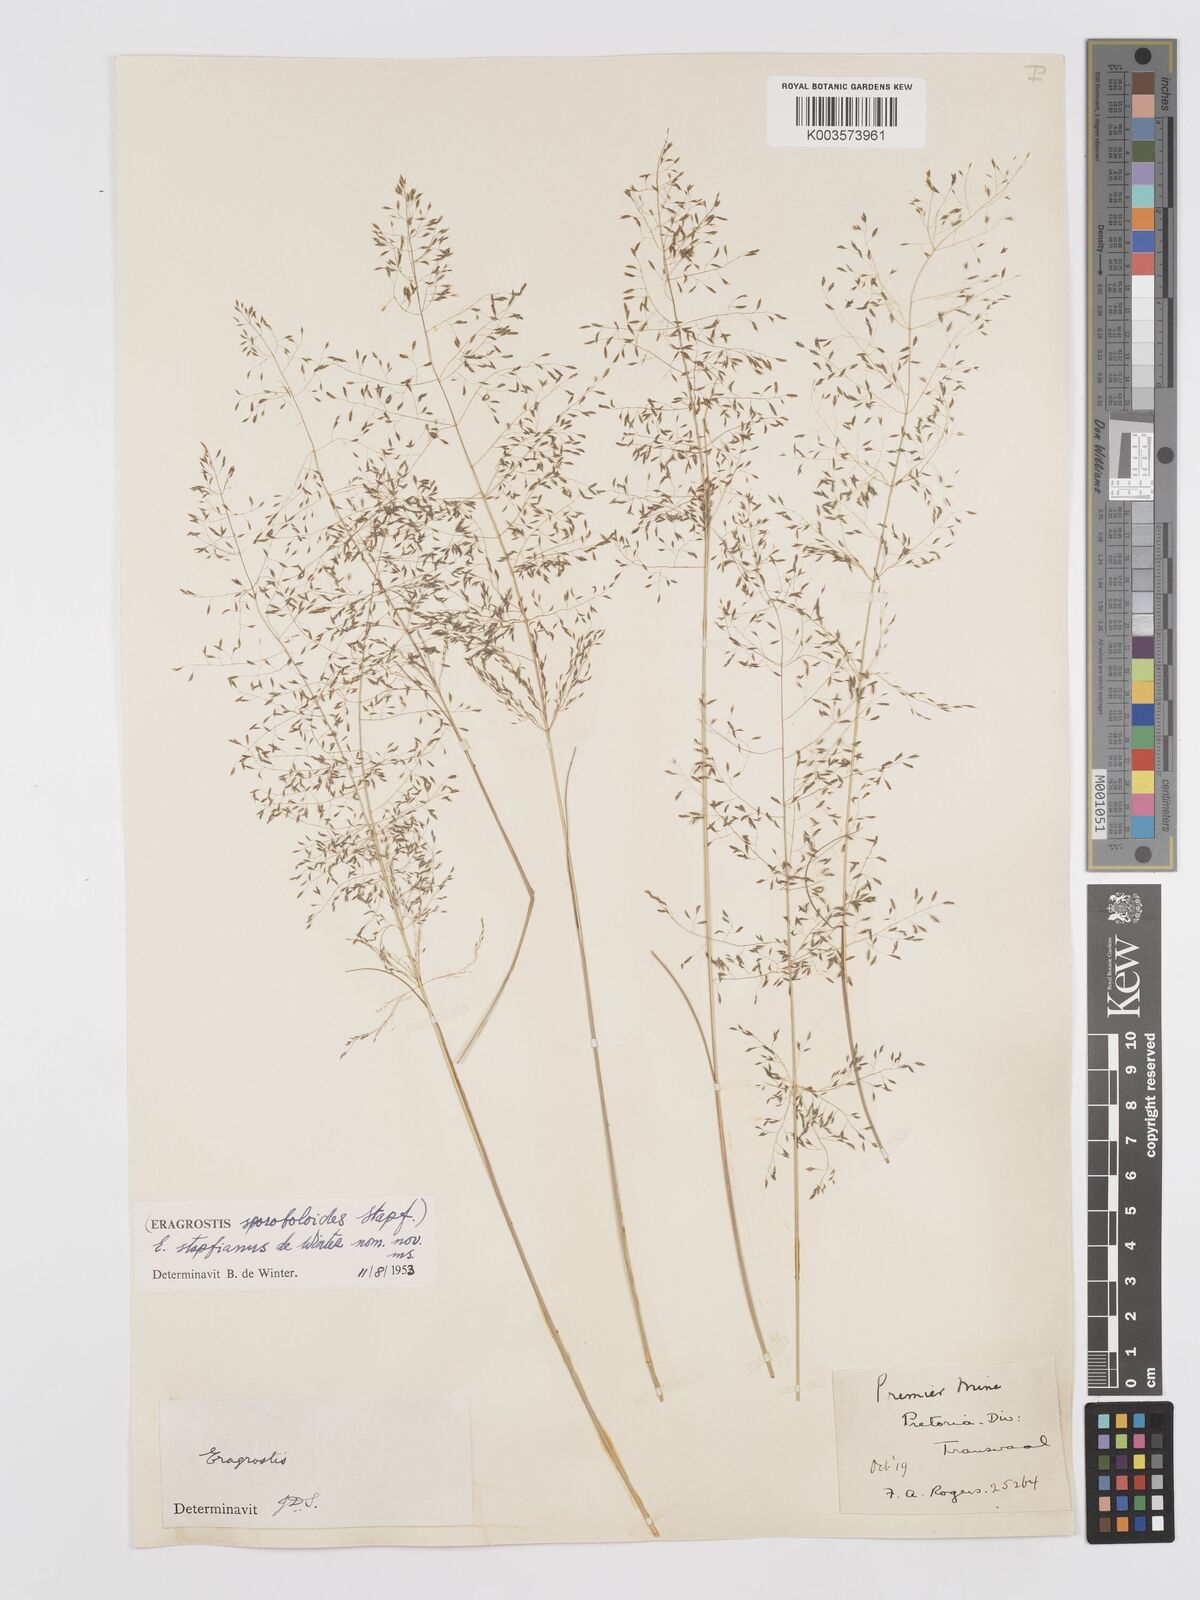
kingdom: Plantae
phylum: Tracheophyta
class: Liliopsida
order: Poales
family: Poaceae
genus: Eragrostis
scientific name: Eragrostis stapfii
